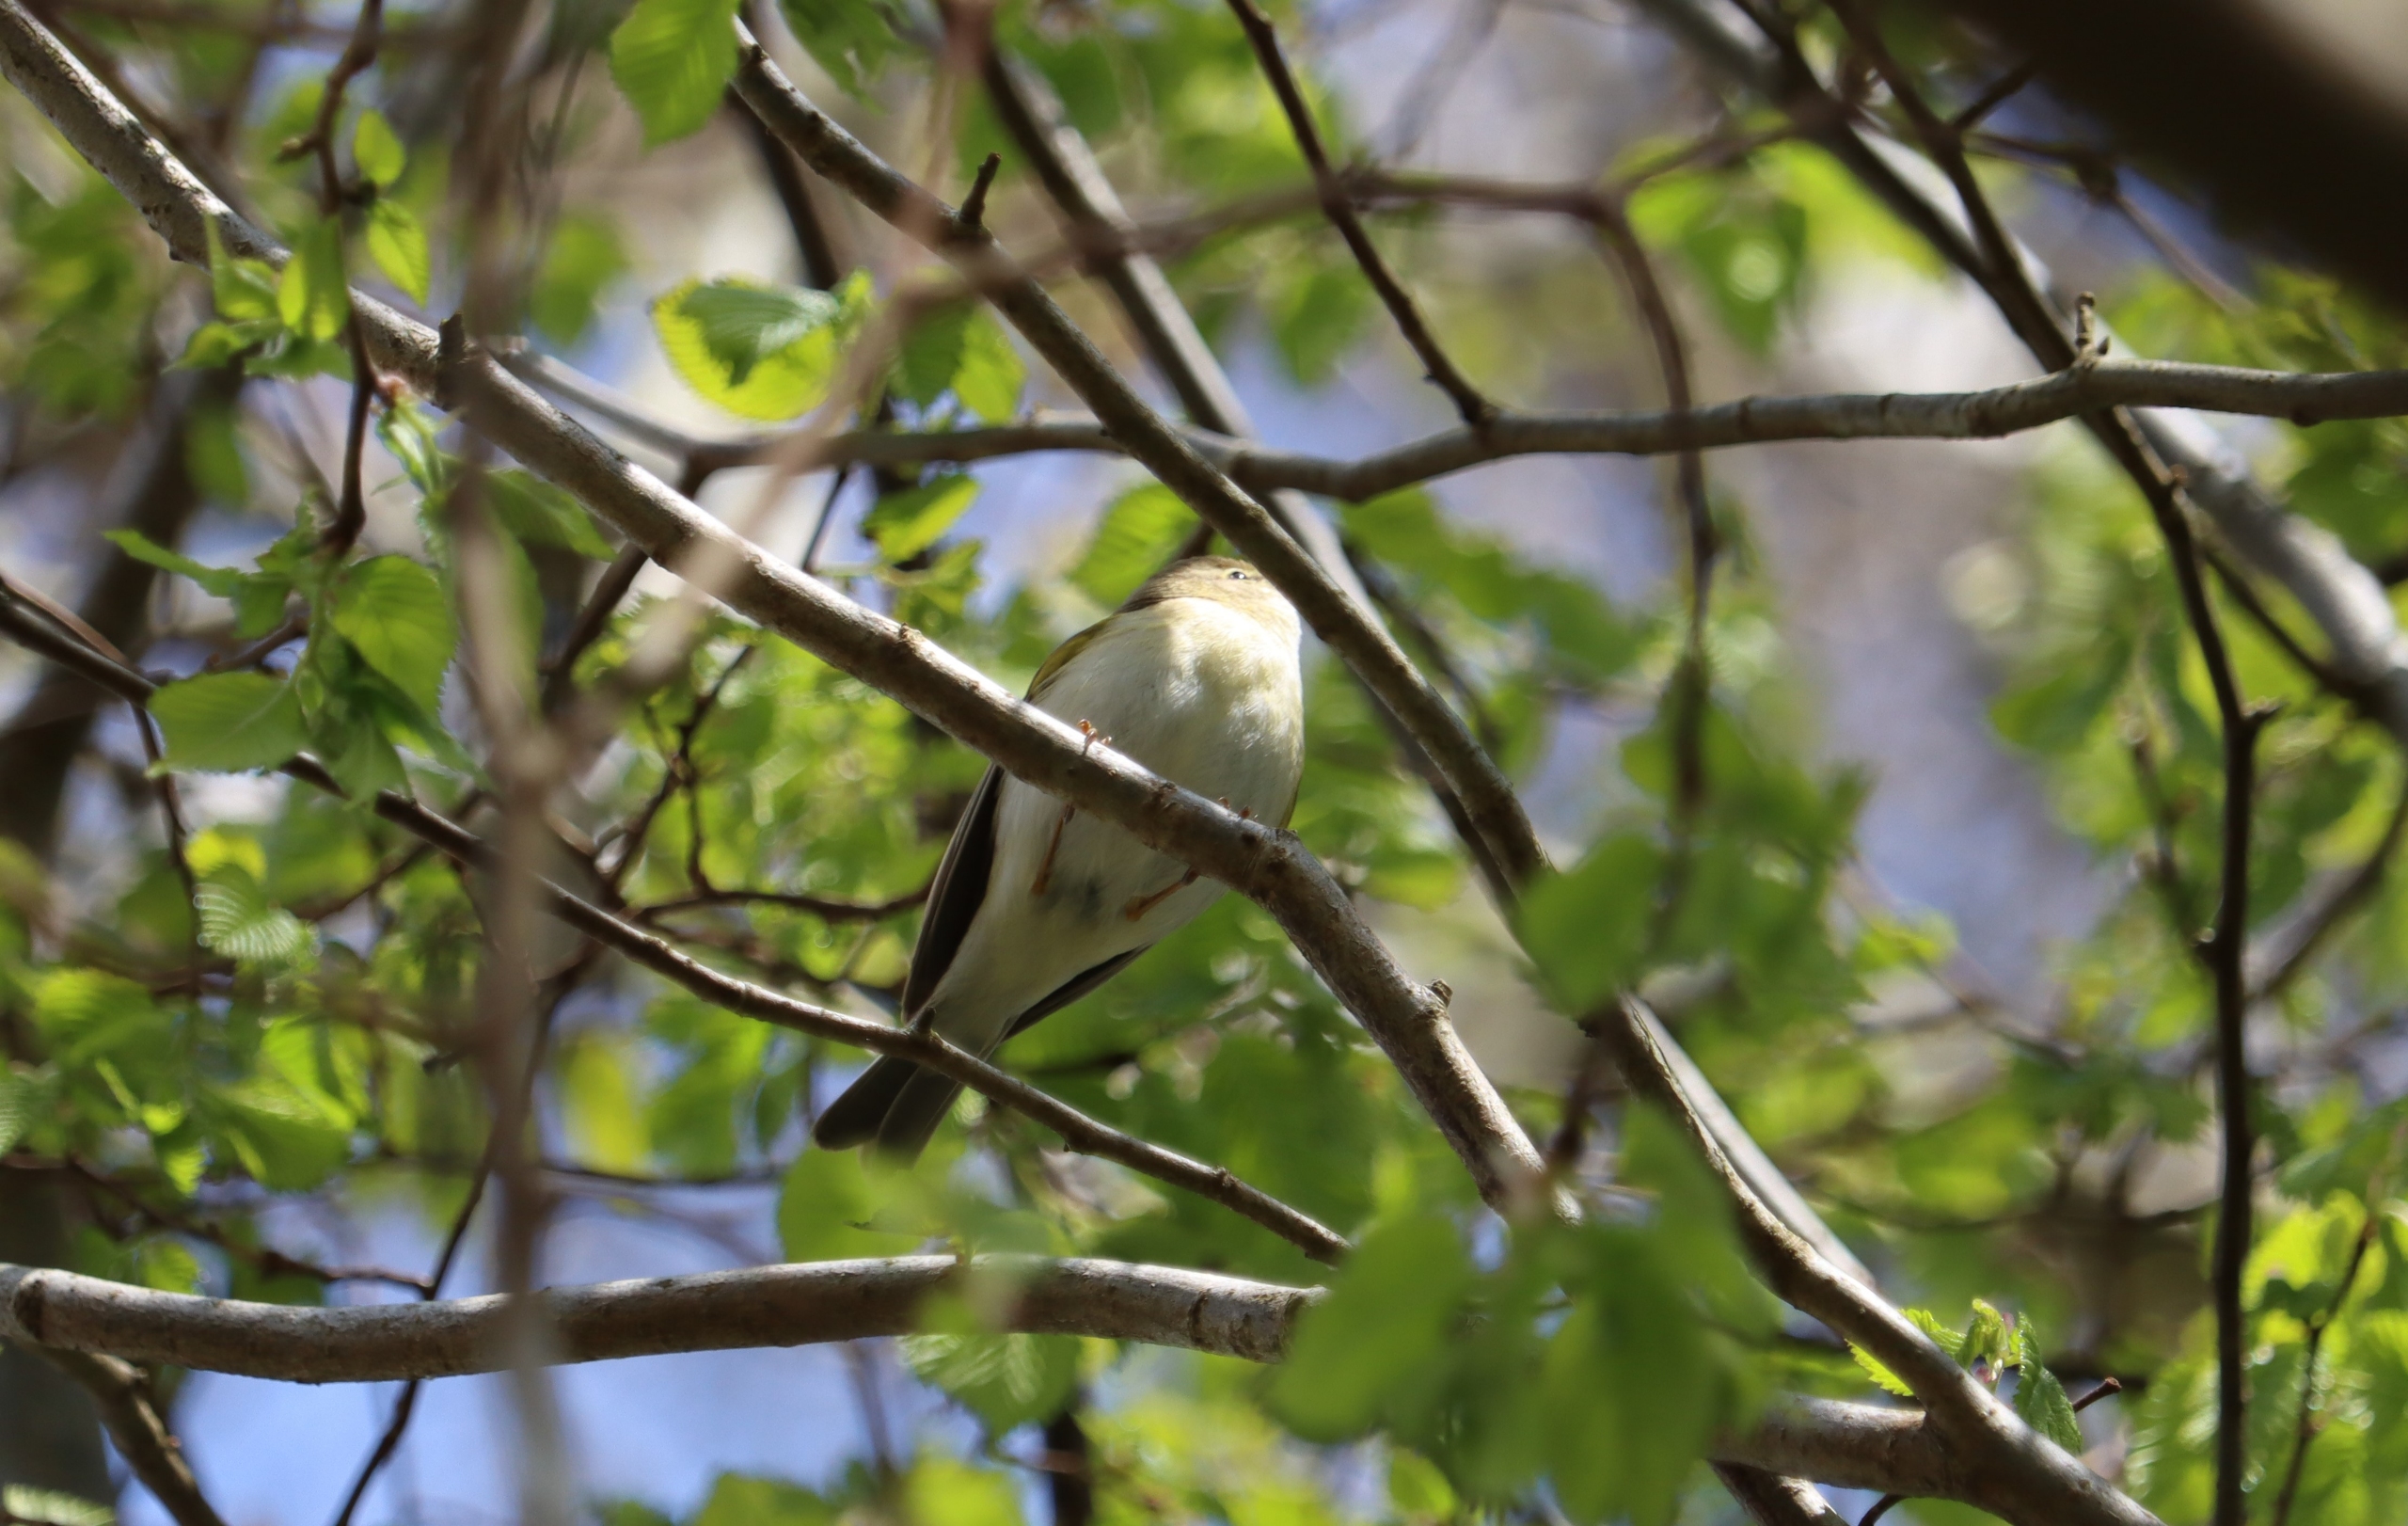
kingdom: Animalia
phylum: Chordata
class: Aves
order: Passeriformes
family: Phylloscopidae
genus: Phylloscopus
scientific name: Phylloscopus trochilus
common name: Løvsanger
